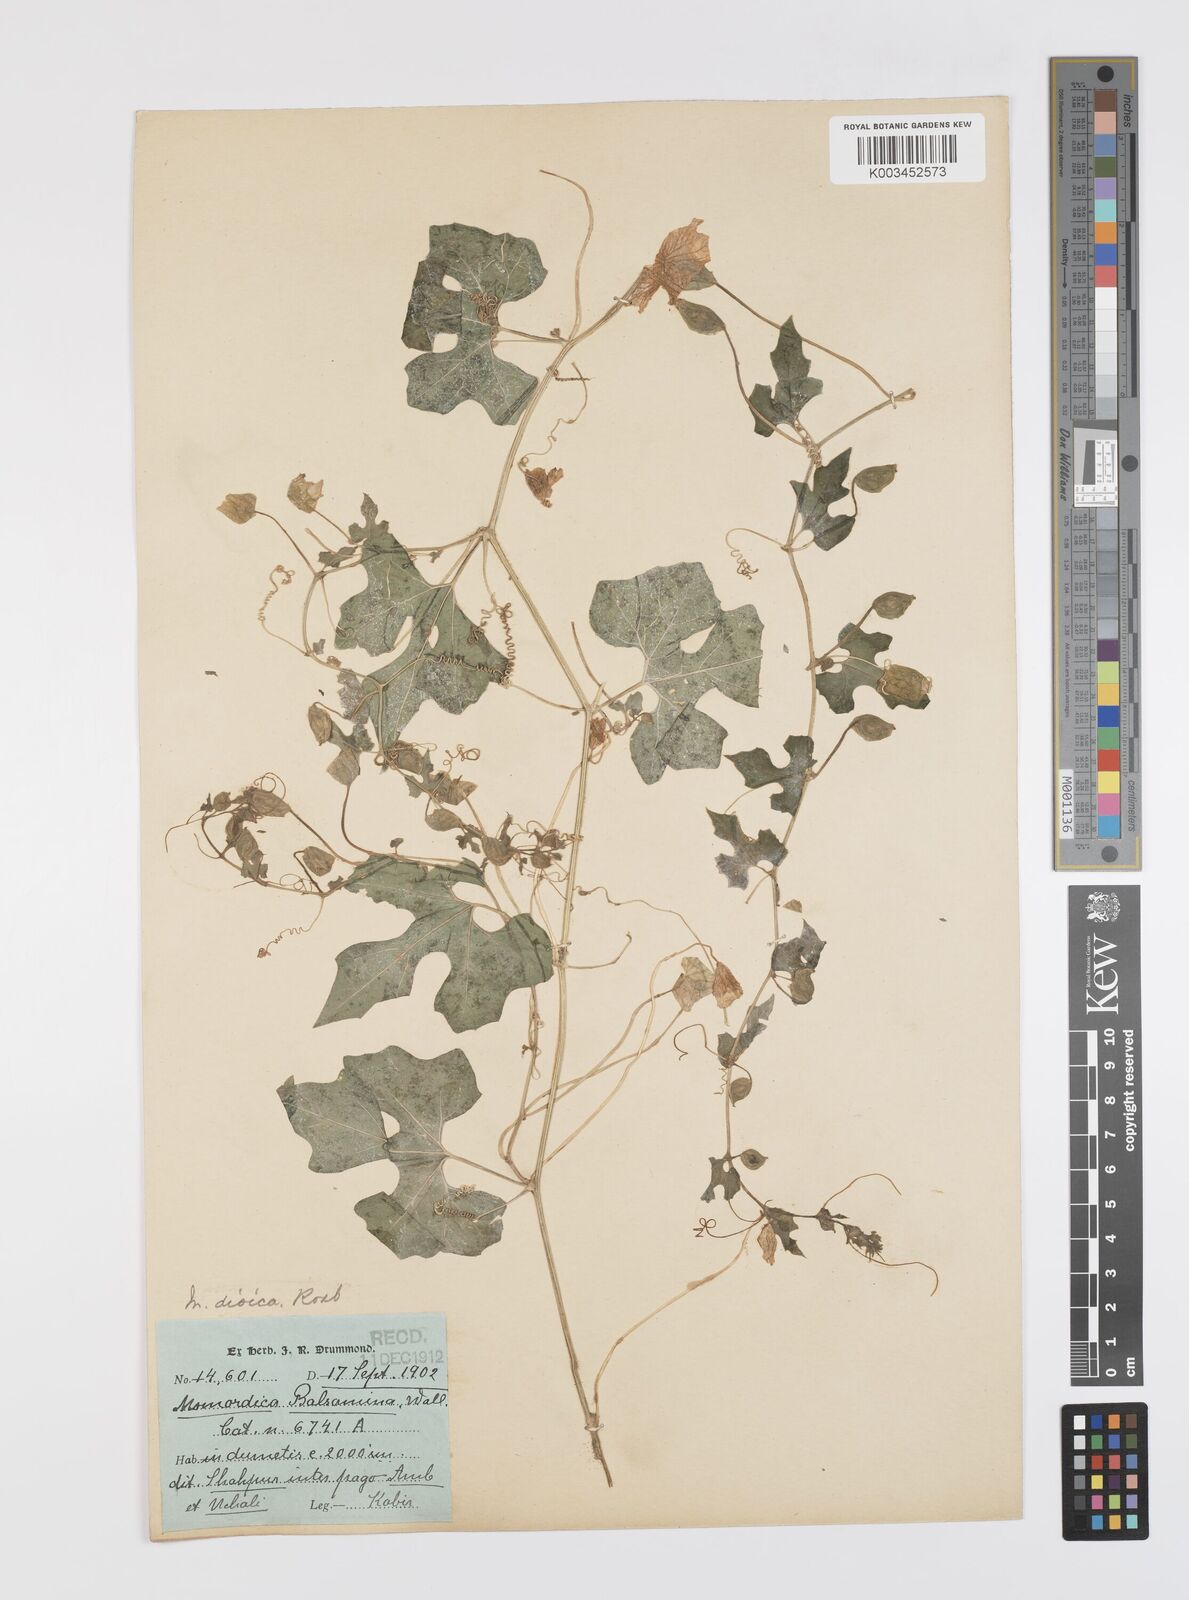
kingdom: Plantae
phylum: Tracheophyta
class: Magnoliopsida
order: Cucurbitales
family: Cucurbitaceae
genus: Momordica
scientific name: Momordica dioica
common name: Spine gourd
